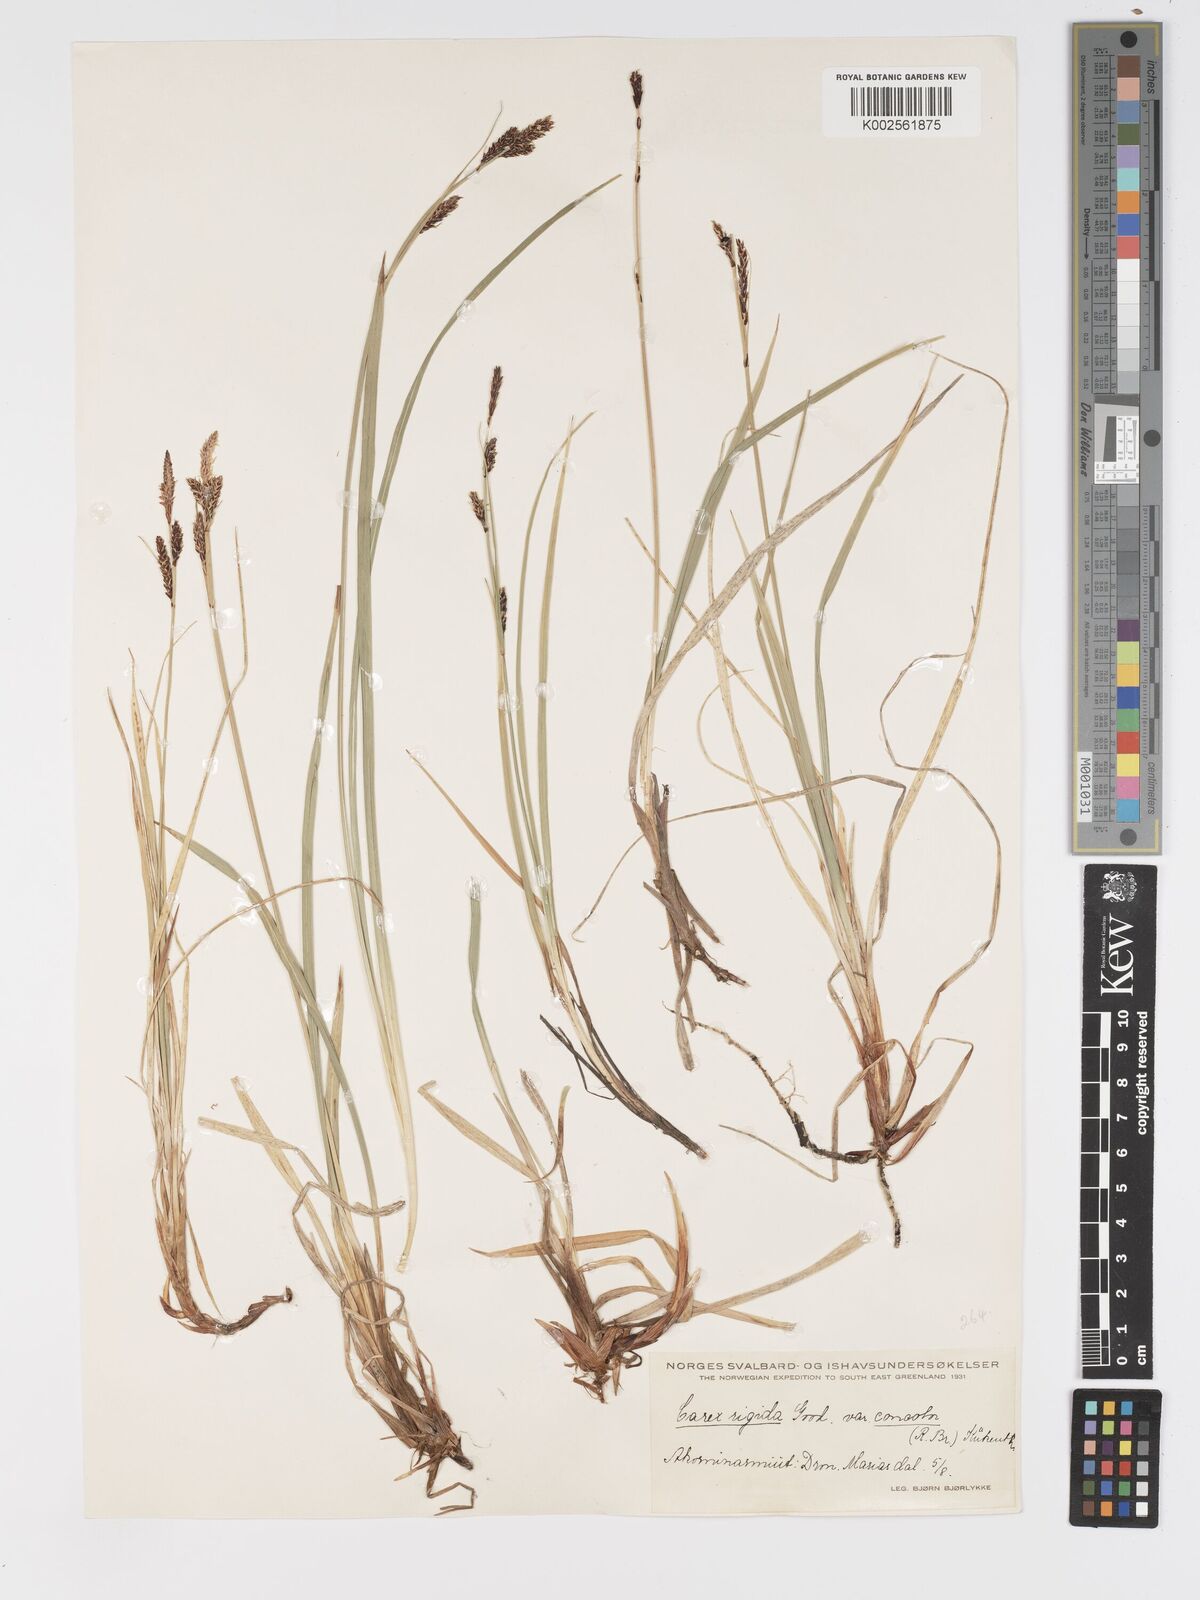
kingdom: Plantae
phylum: Tracheophyta
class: Liliopsida
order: Poales
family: Cyperaceae
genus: Carex
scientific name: Carex bigelowii
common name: Stiff sedge
